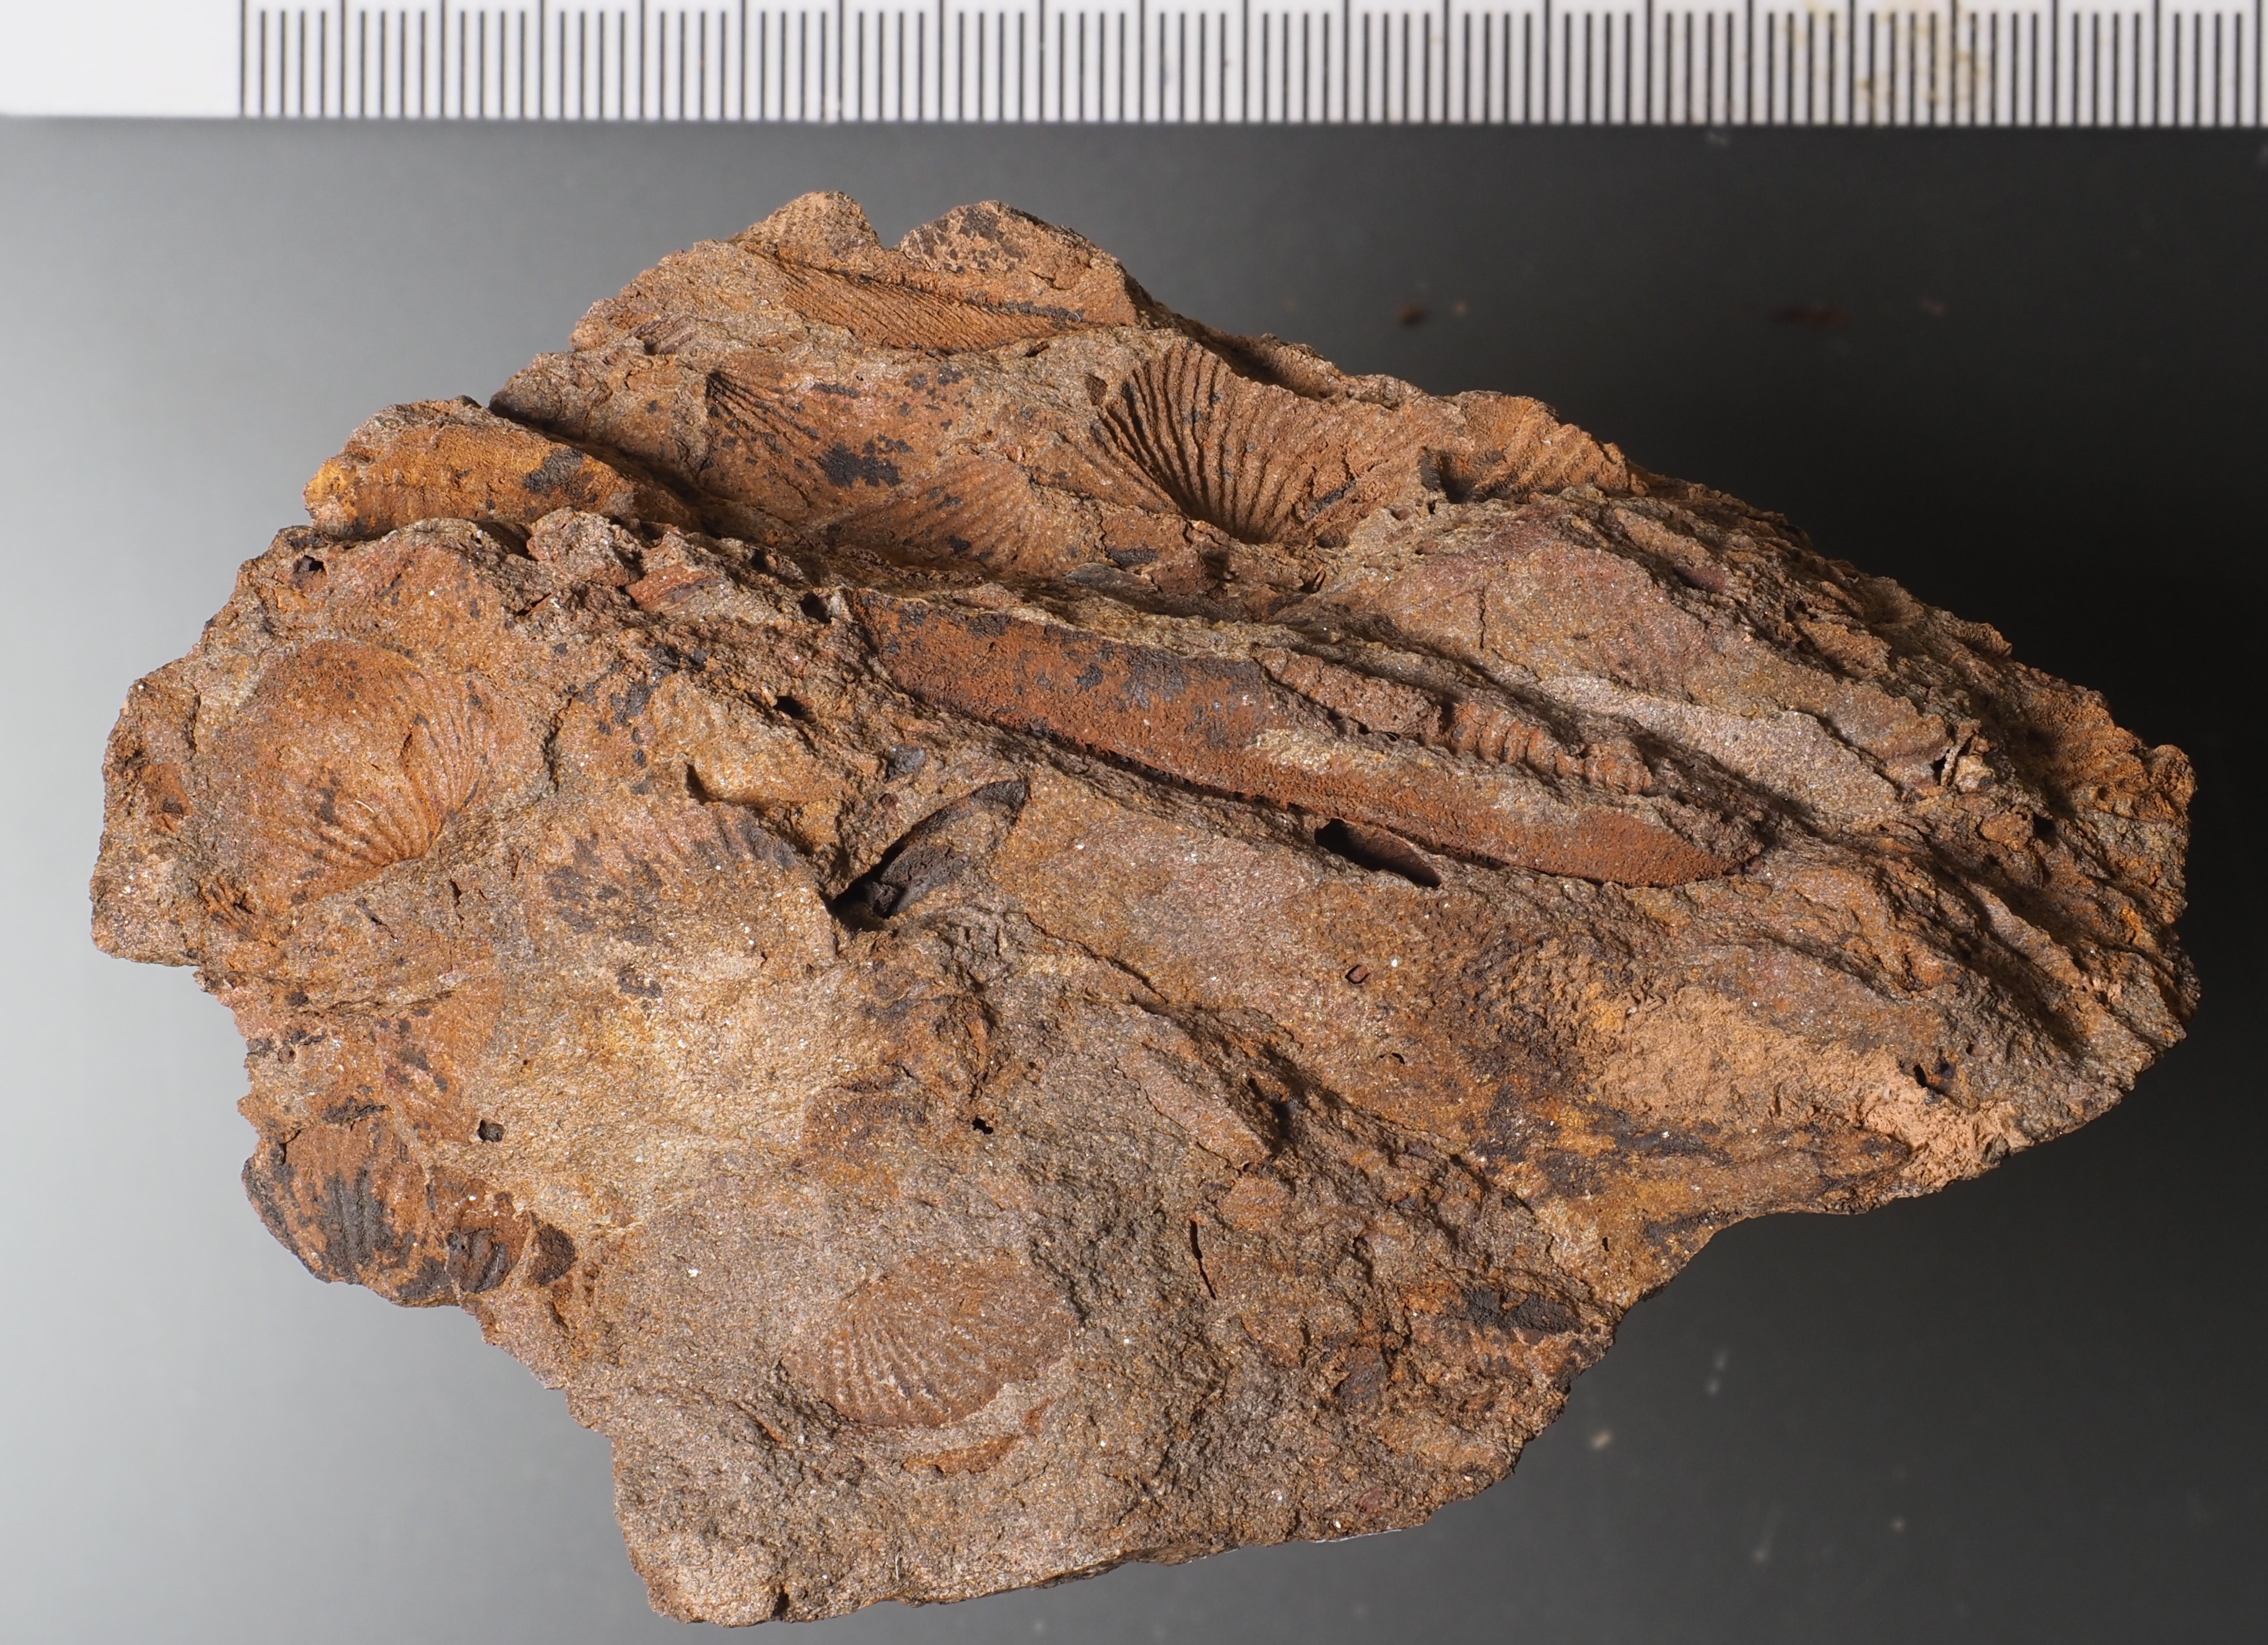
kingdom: Animalia
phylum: Mollusca
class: Cricoconarida
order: Tentaculitida
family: Tentaculitidae
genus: Tentaculites
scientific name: Tentaculites
